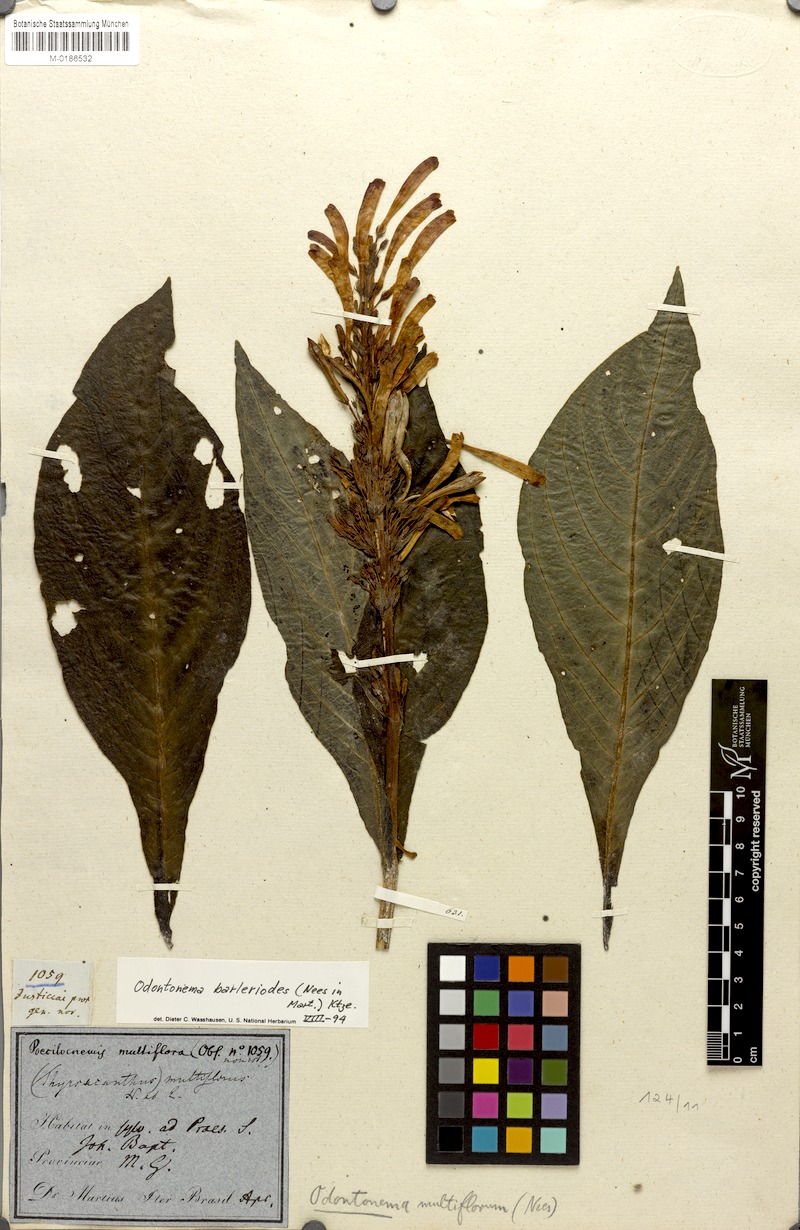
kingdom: Plantae
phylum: Tracheophyta
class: Magnoliopsida
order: Lamiales
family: Acanthaceae
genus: Odontonema
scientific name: Odontonema barleriodes
